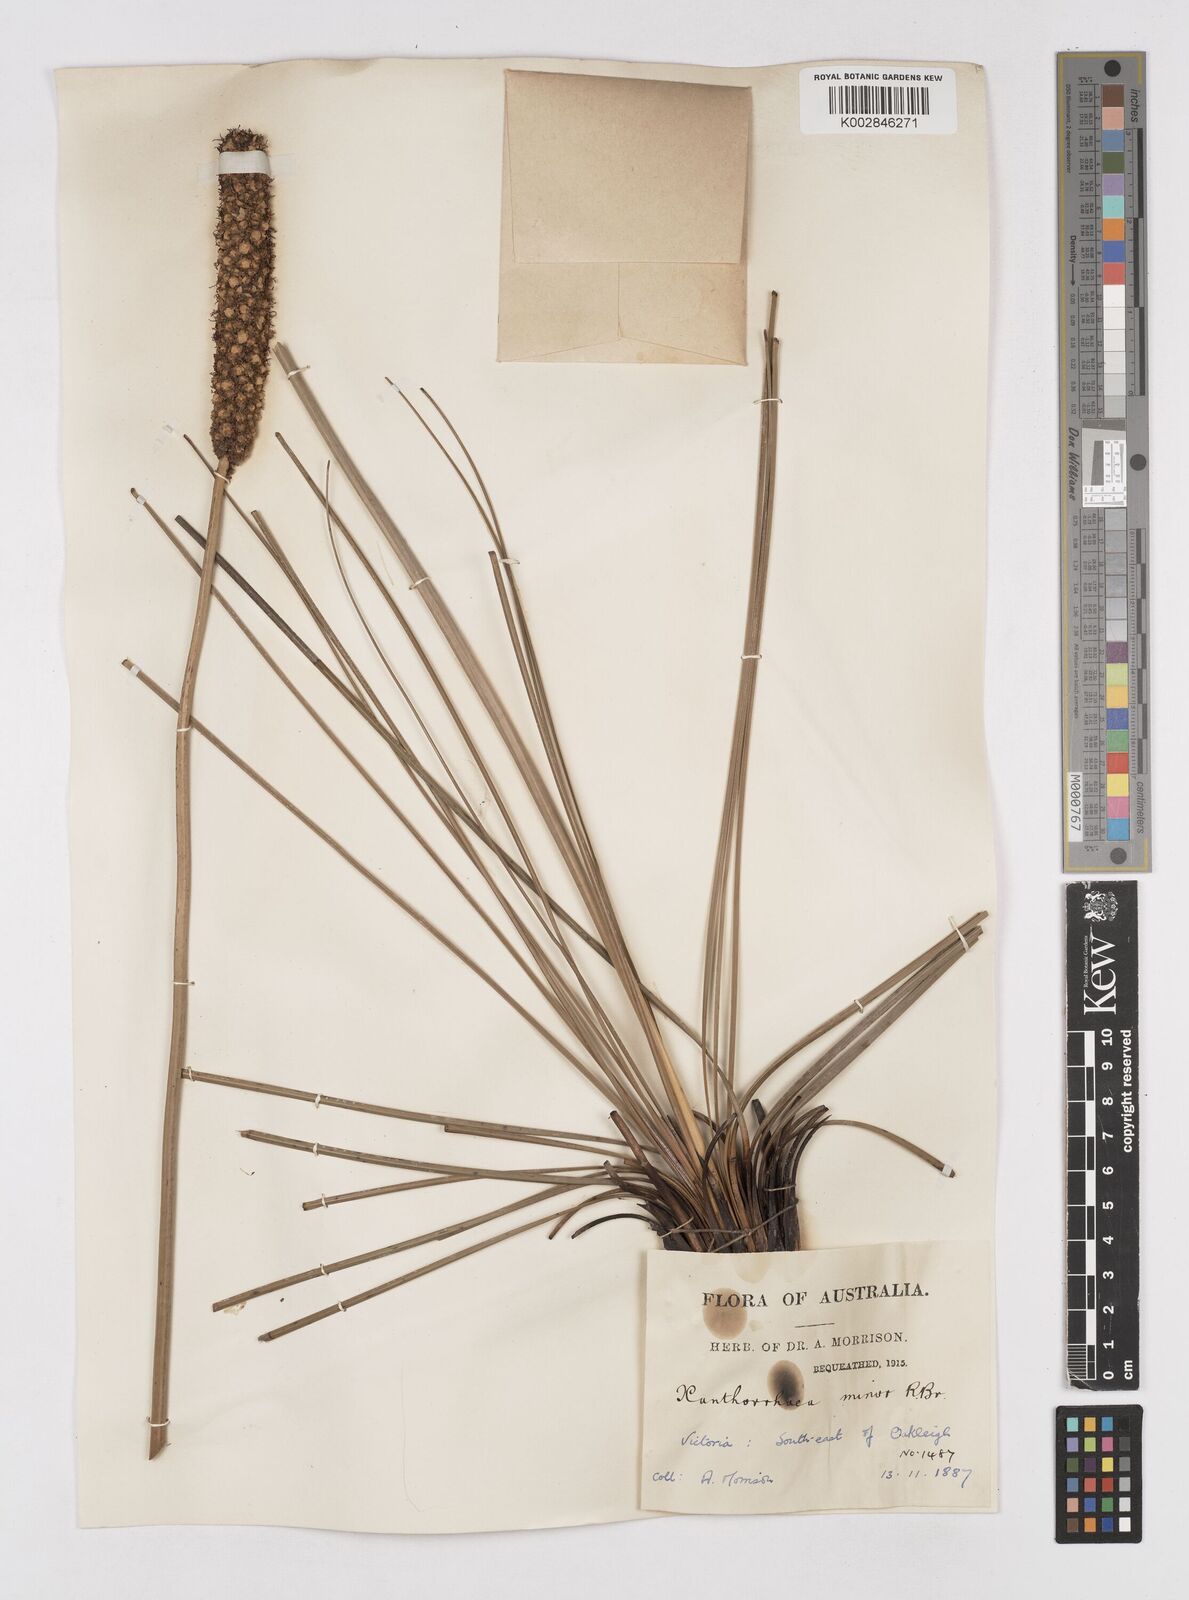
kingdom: Plantae
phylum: Tracheophyta
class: Liliopsida
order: Asparagales
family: Asphodelaceae
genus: Xanthorrhoea
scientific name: Xanthorrhoea minor
